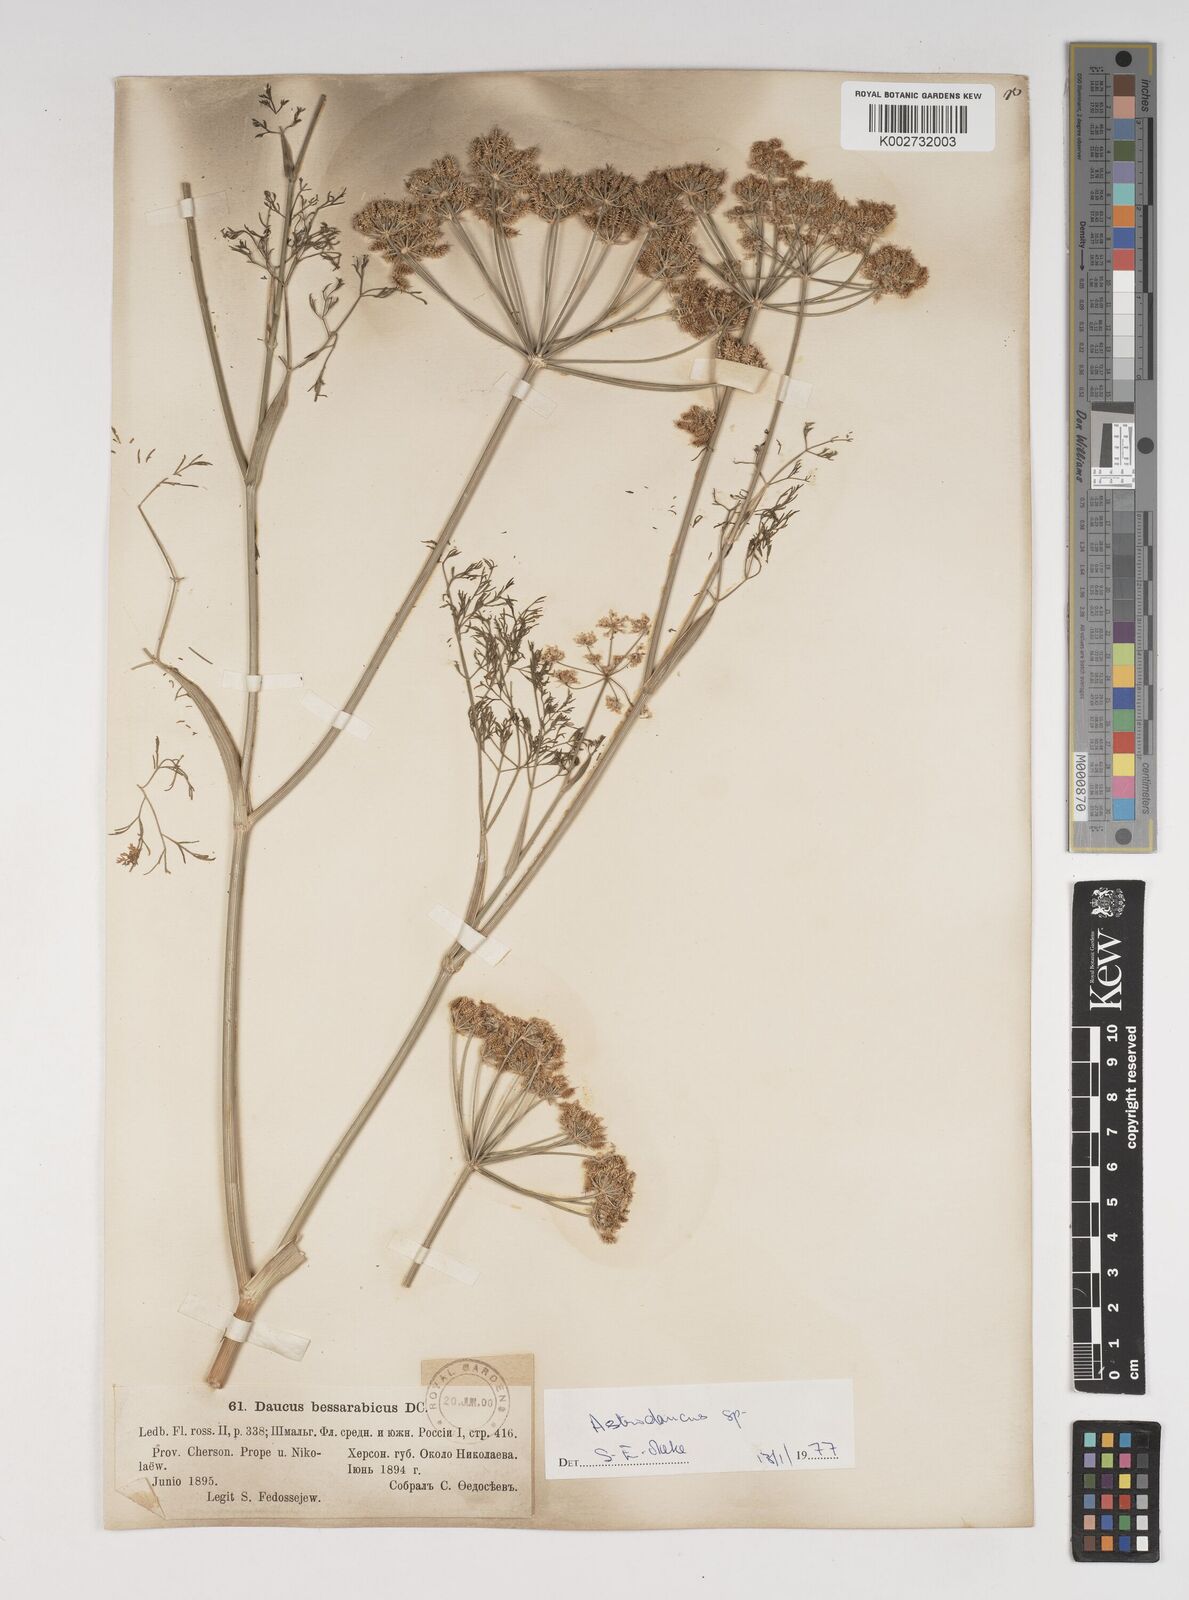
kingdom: Plantae
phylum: Tracheophyta
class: Magnoliopsida
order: Apiales
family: Apiaceae
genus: Astrodaucus
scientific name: Astrodaucus littoralis
